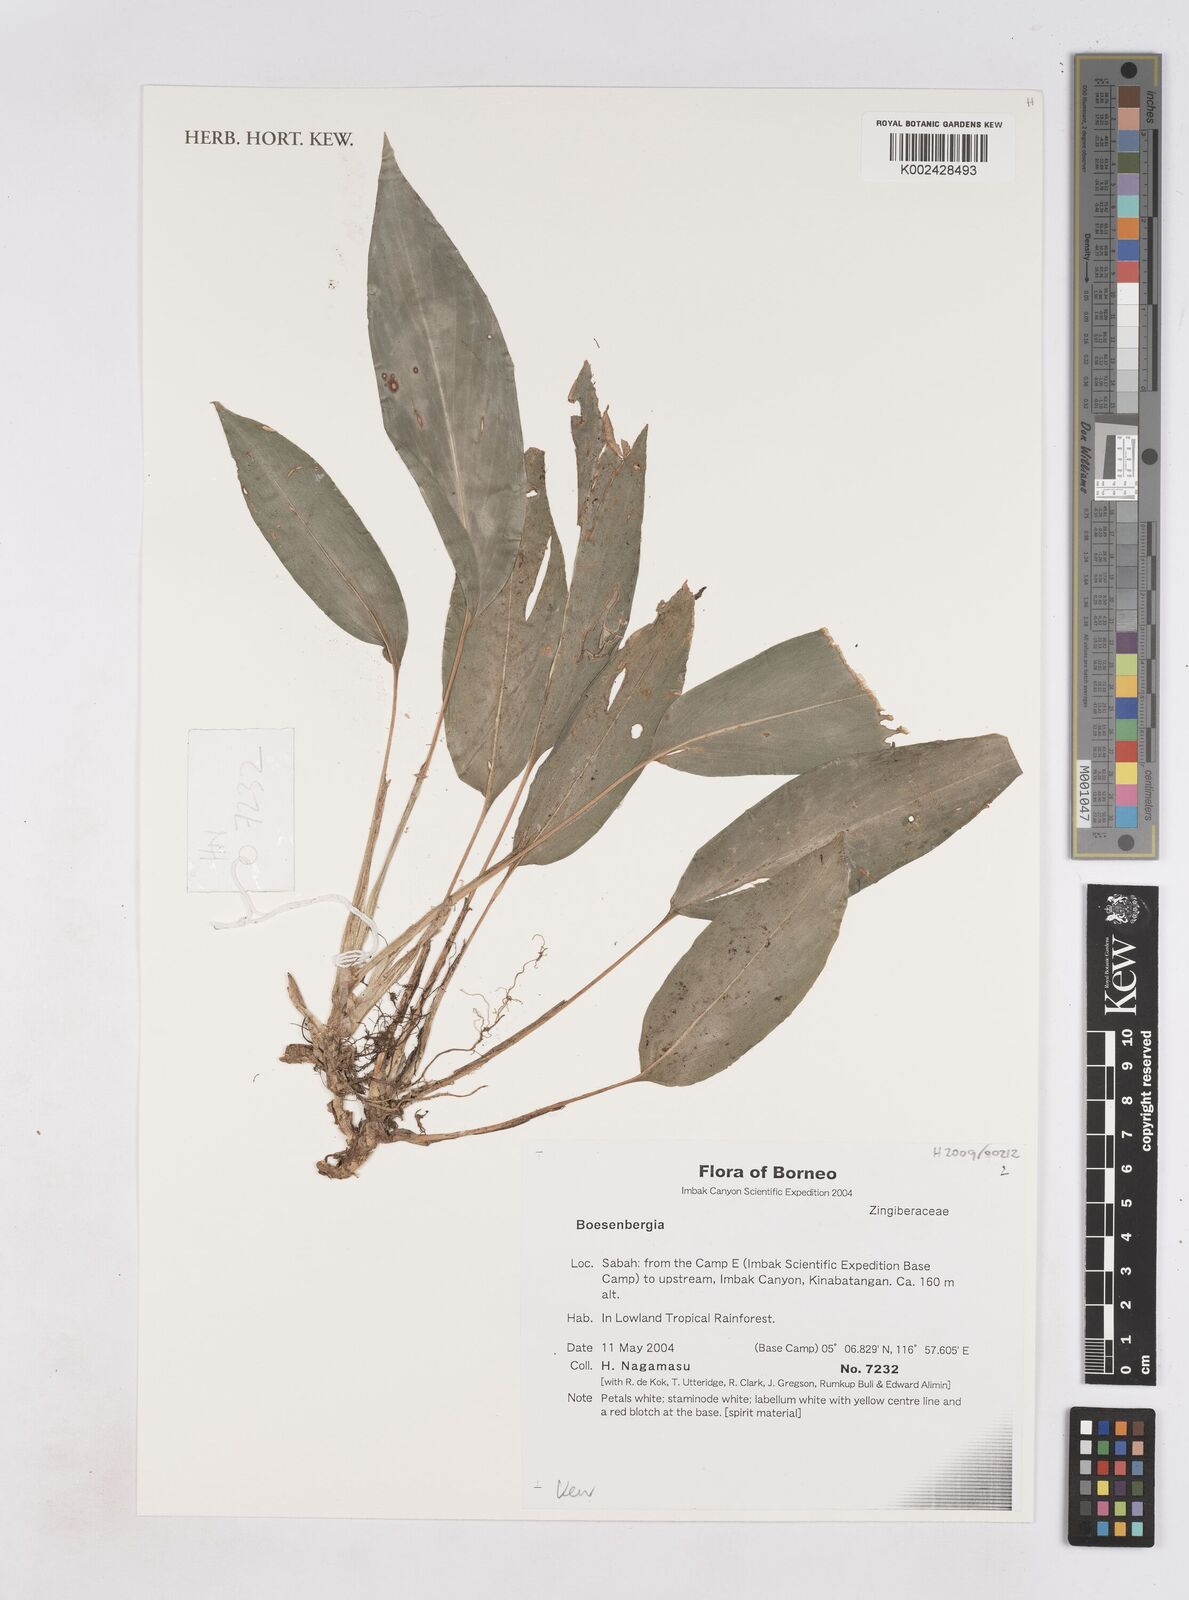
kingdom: Plantae
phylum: Tracheophyta
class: Liliopsida
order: Zingiberales
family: Zingiberaceae
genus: Boesenbergia
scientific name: Boesenbergia
